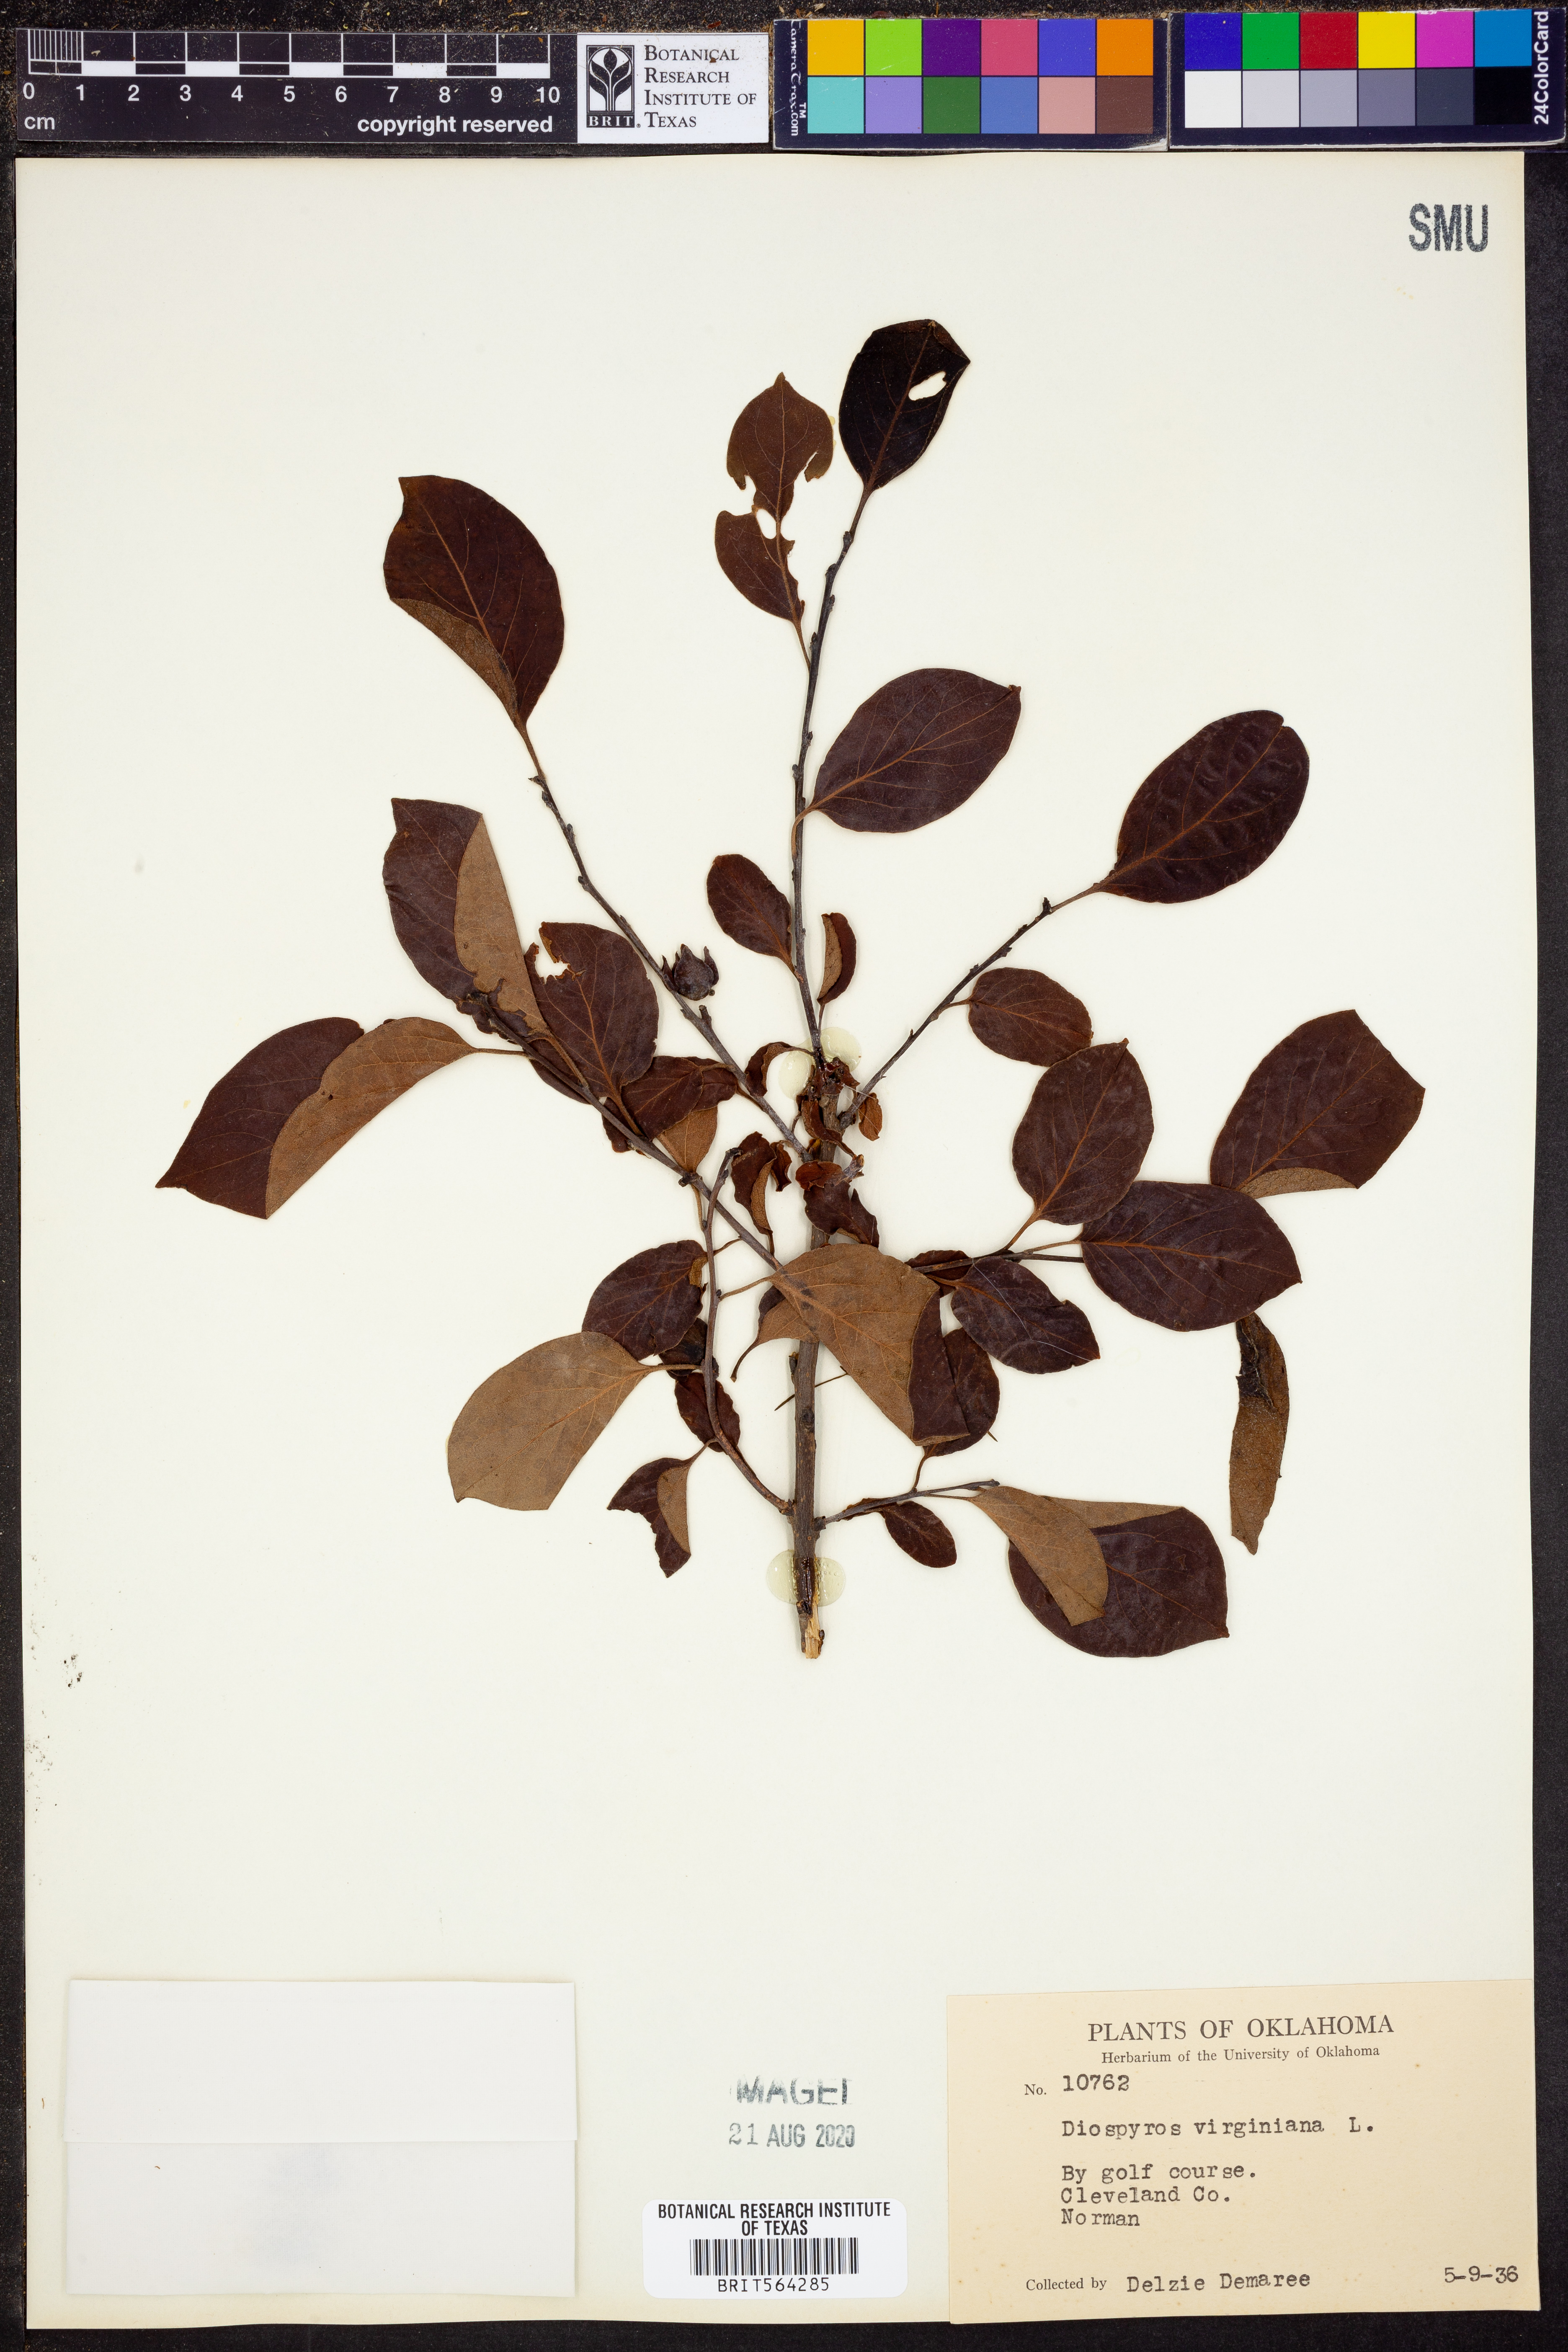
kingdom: Plantae
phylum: Tracheophyta
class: Magnoliopsida
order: Ericales
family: Ebenaceae
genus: Diospyros
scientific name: Diospyros virginiana
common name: Persimmon
